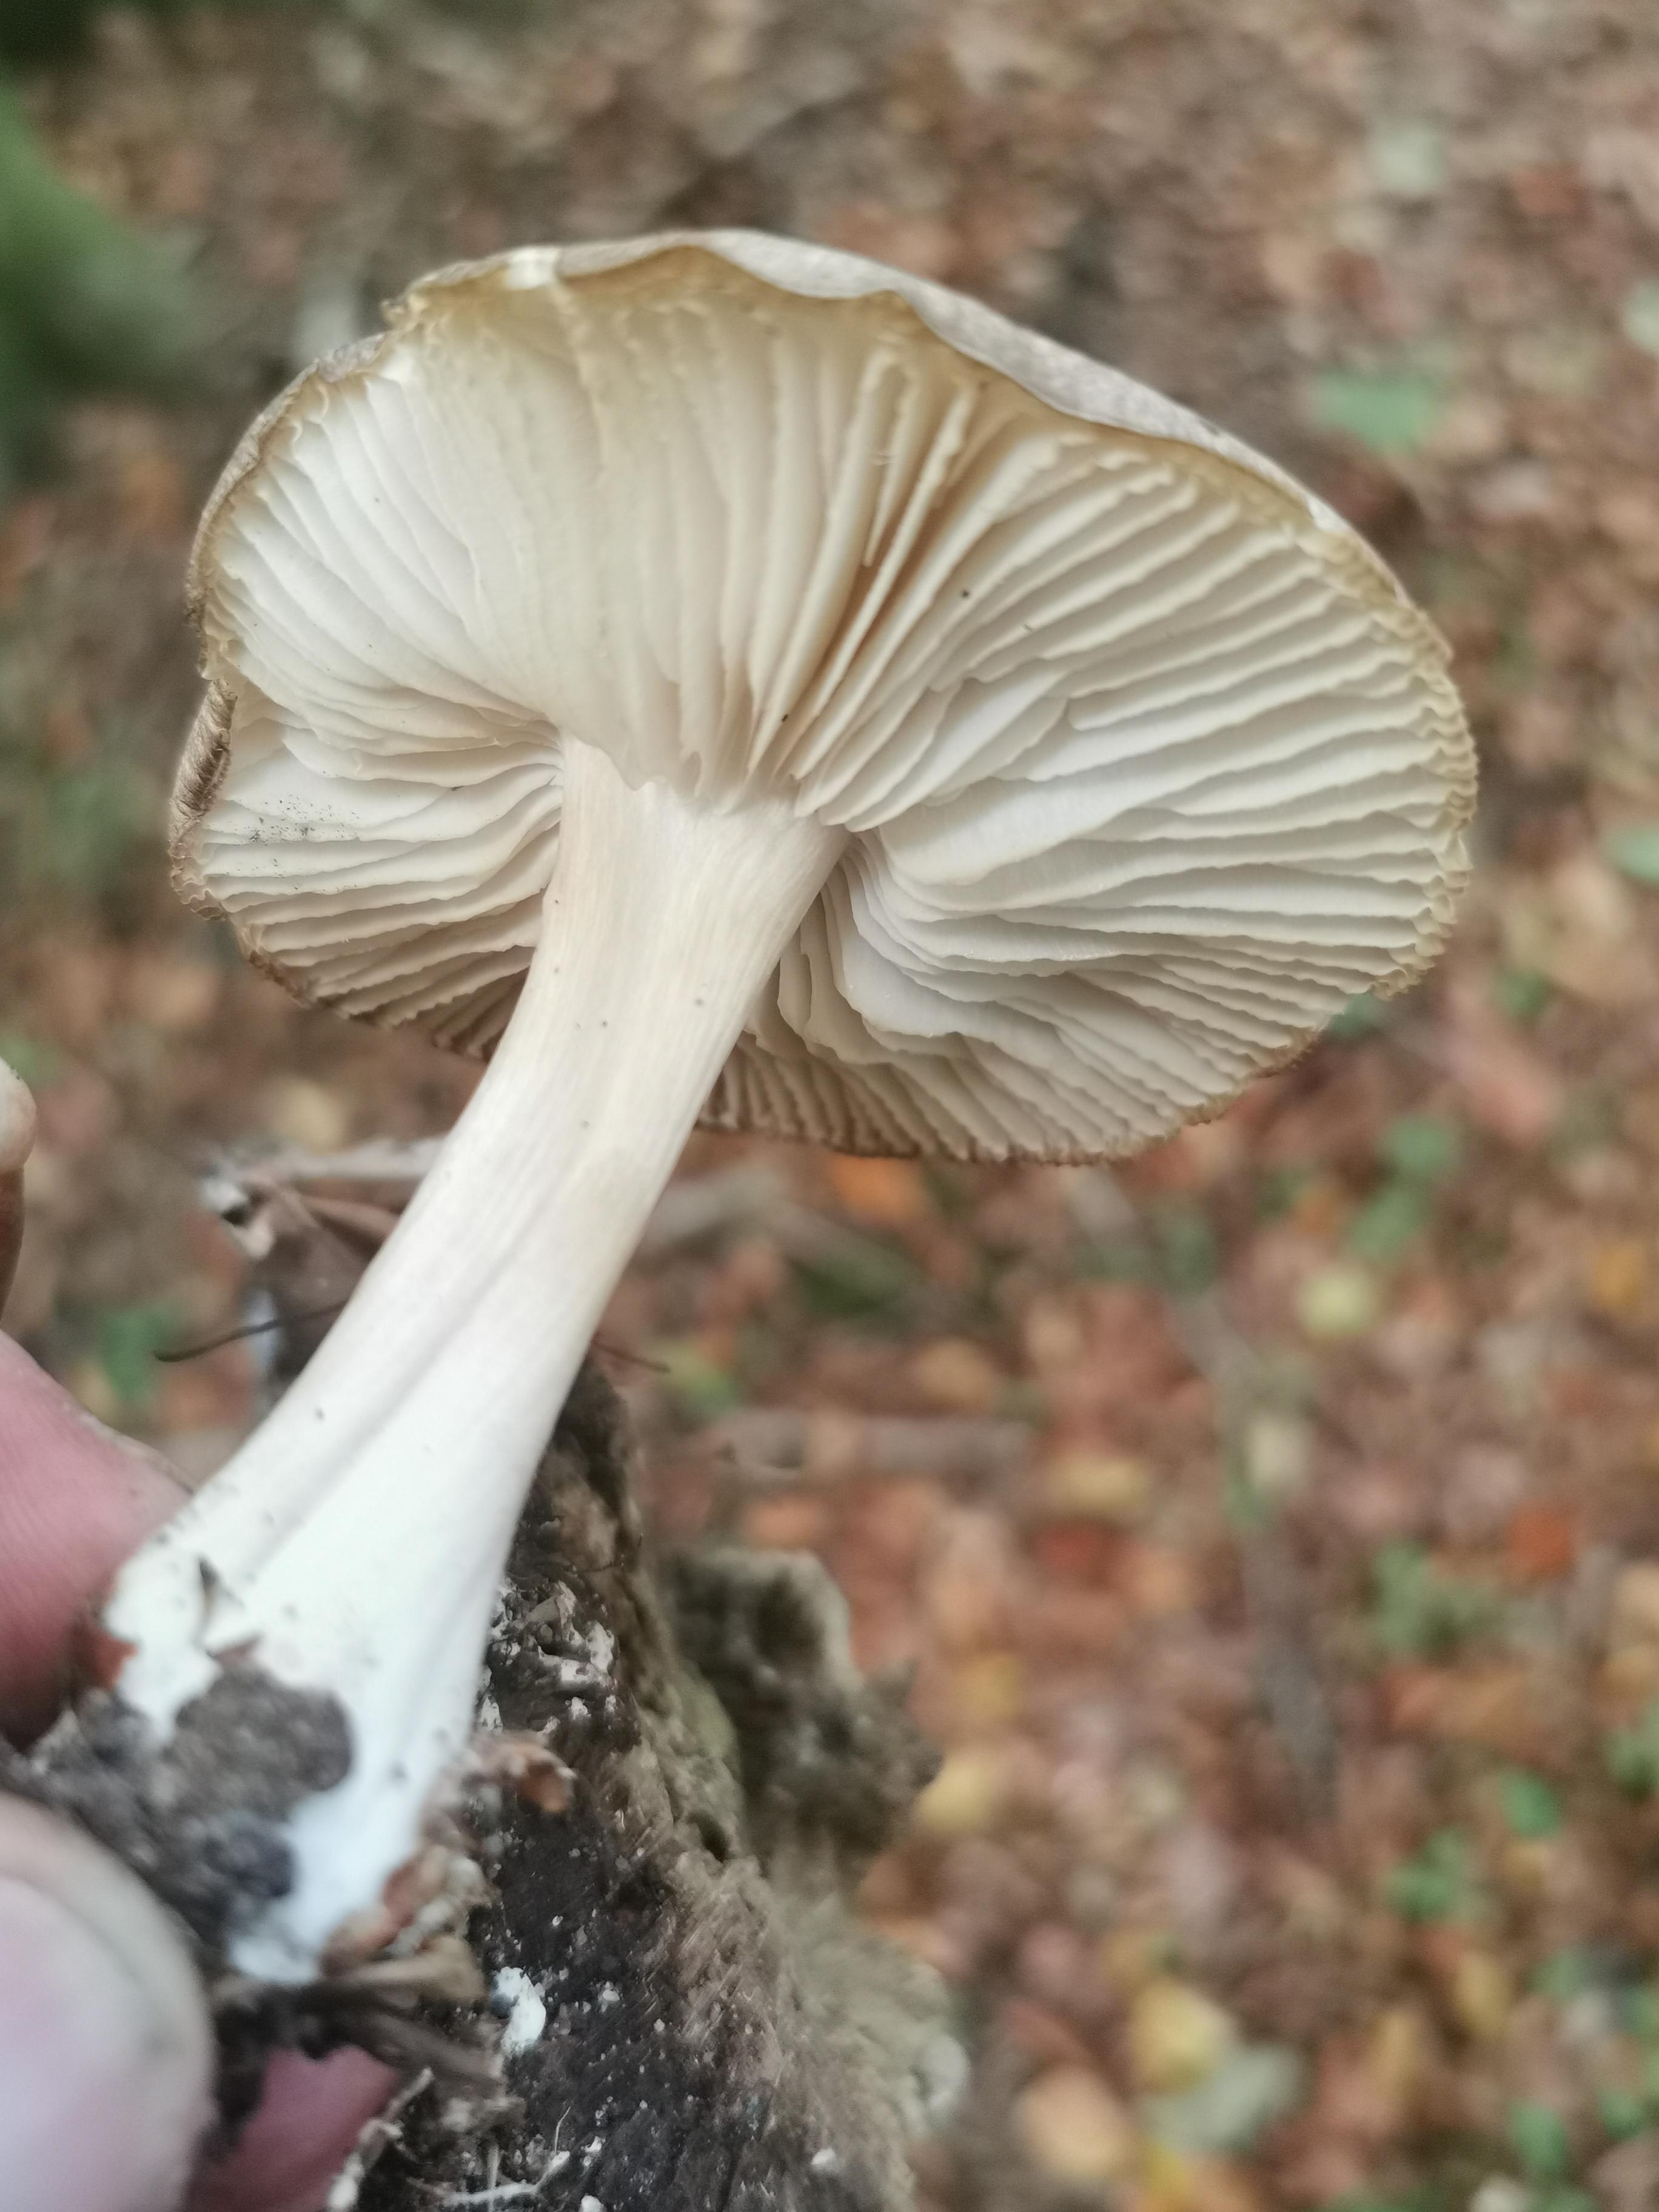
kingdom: Fungi
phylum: Basidiomycota
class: Agaricomycetes
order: Agaricales
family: Tricholomataceae
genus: Megacollybia
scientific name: Megacollybia platyphylla
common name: bredbladet væbnerhat
